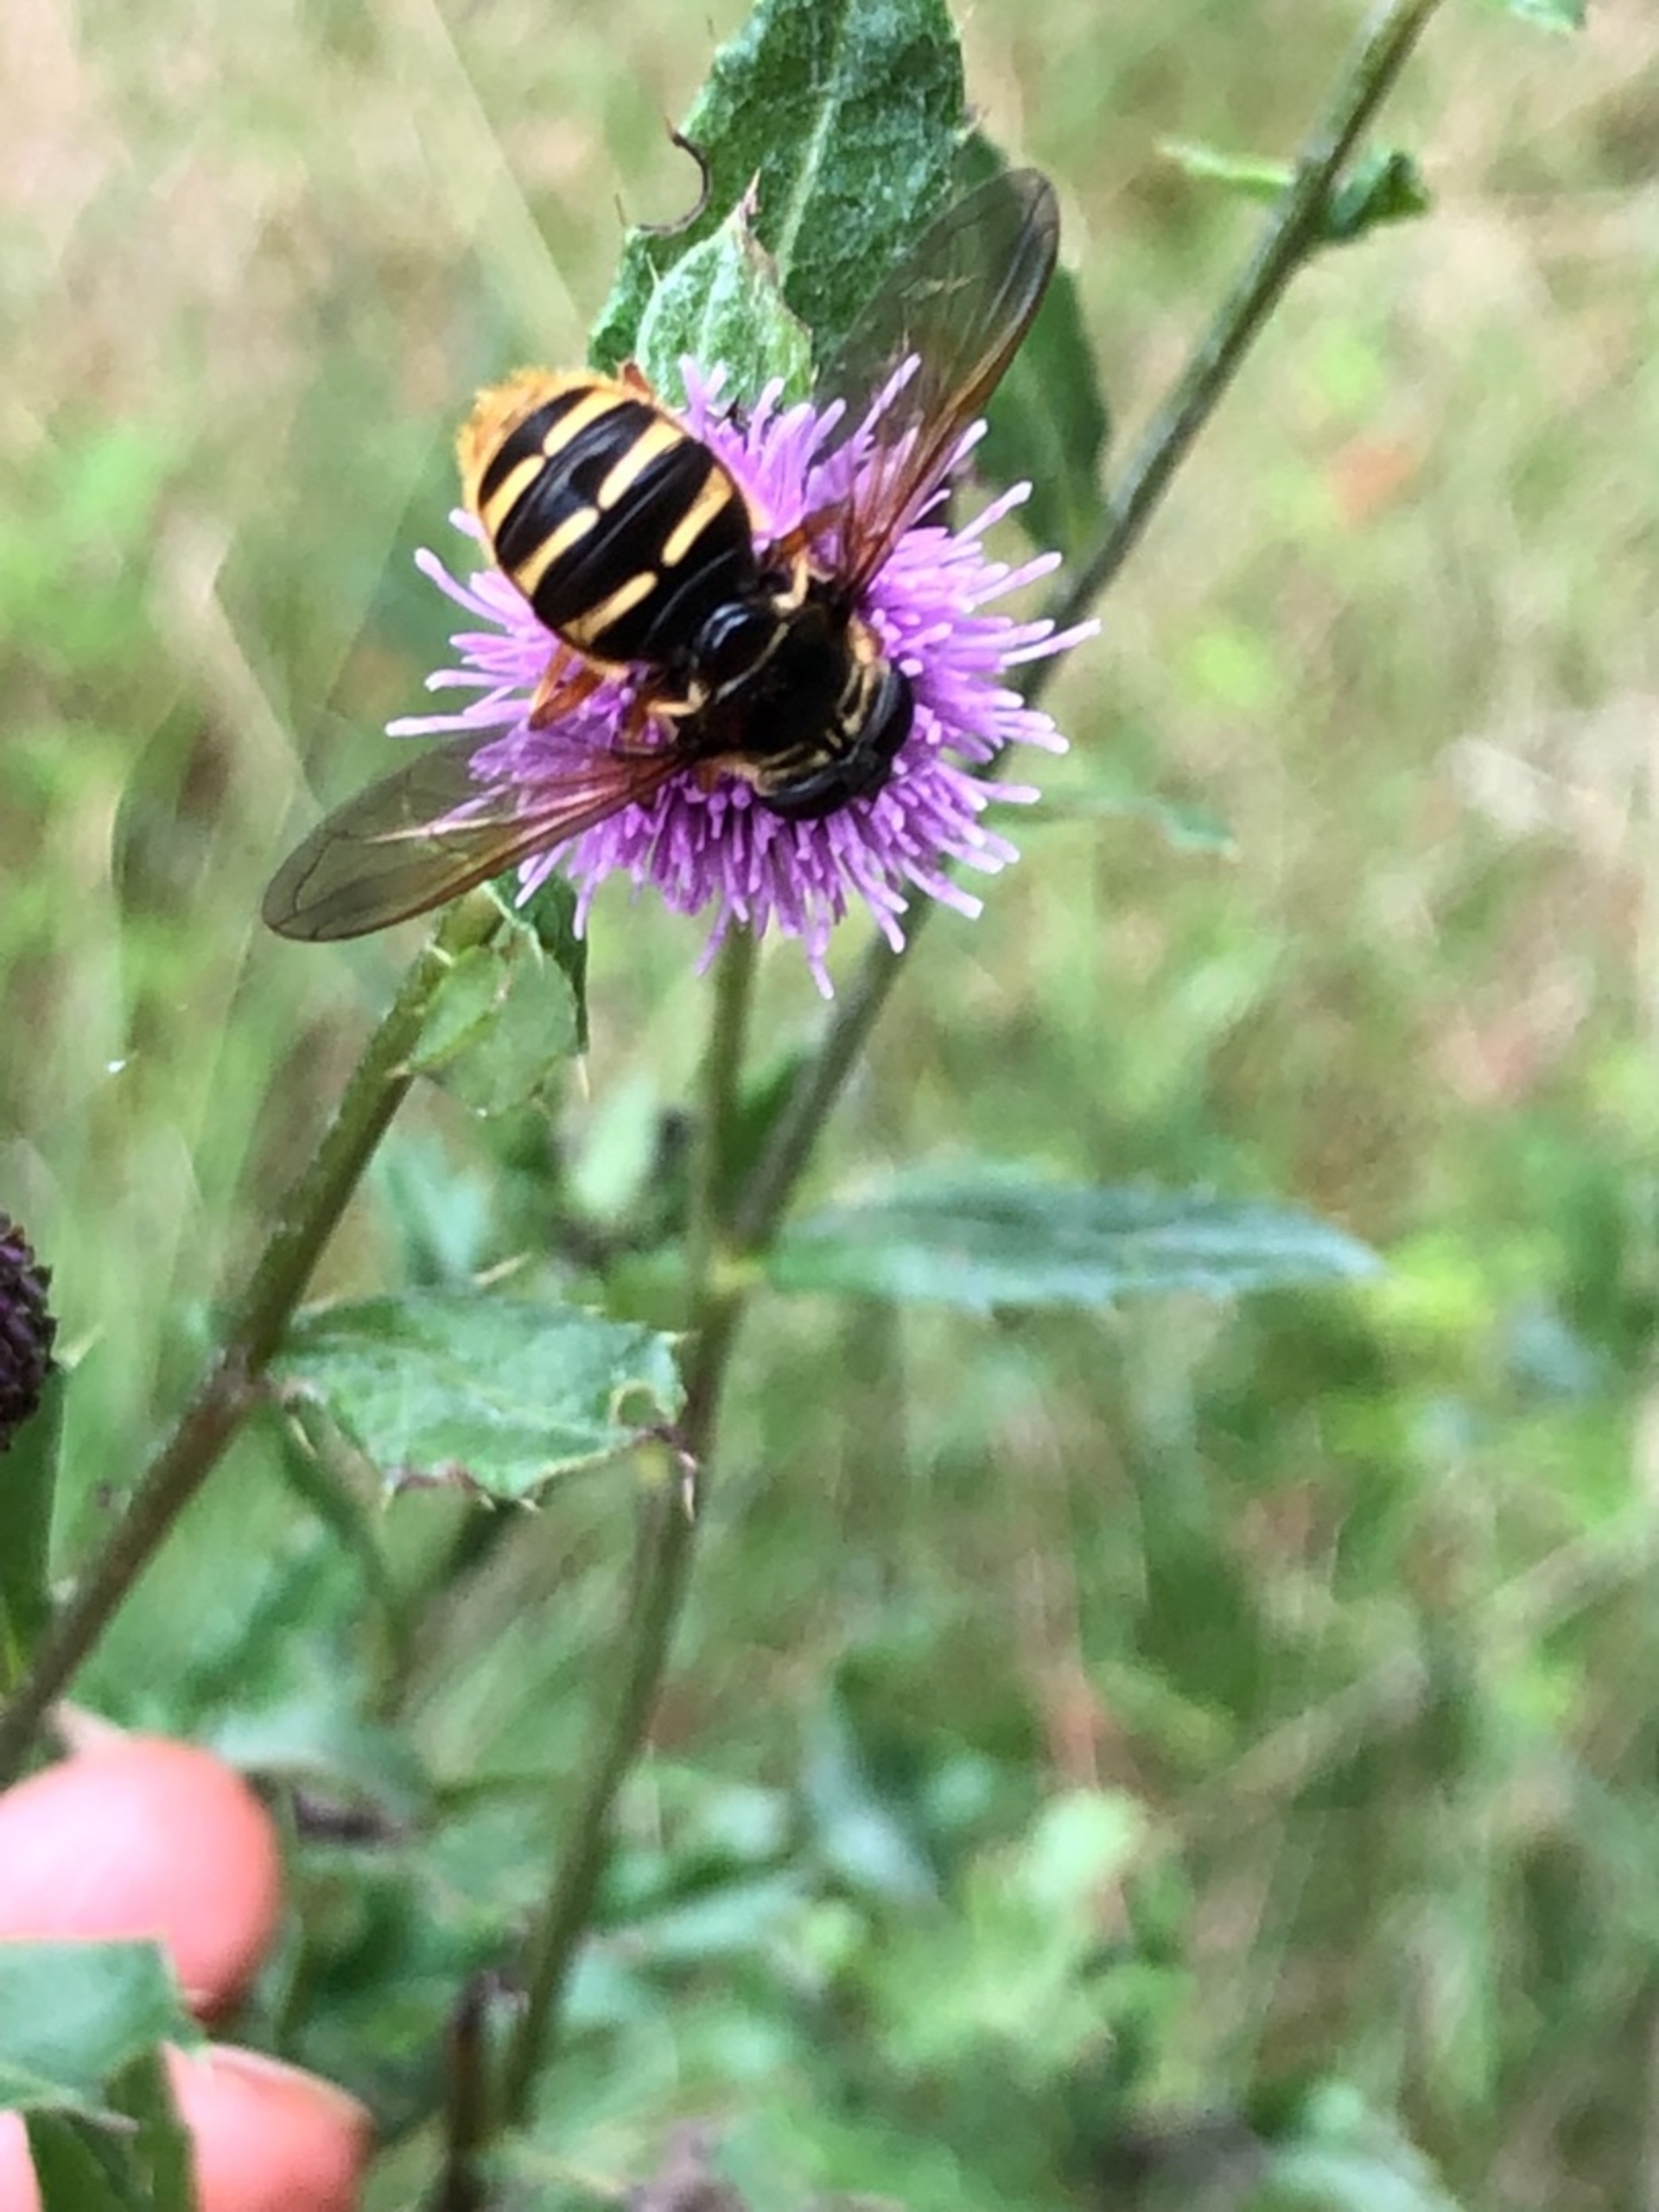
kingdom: Animalia
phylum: Arthropoda
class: Insecta
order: Diptera
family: Syrphidae
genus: Sericomyia
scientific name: Sericomyia silentis
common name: Tørve-silkesvirreflue
